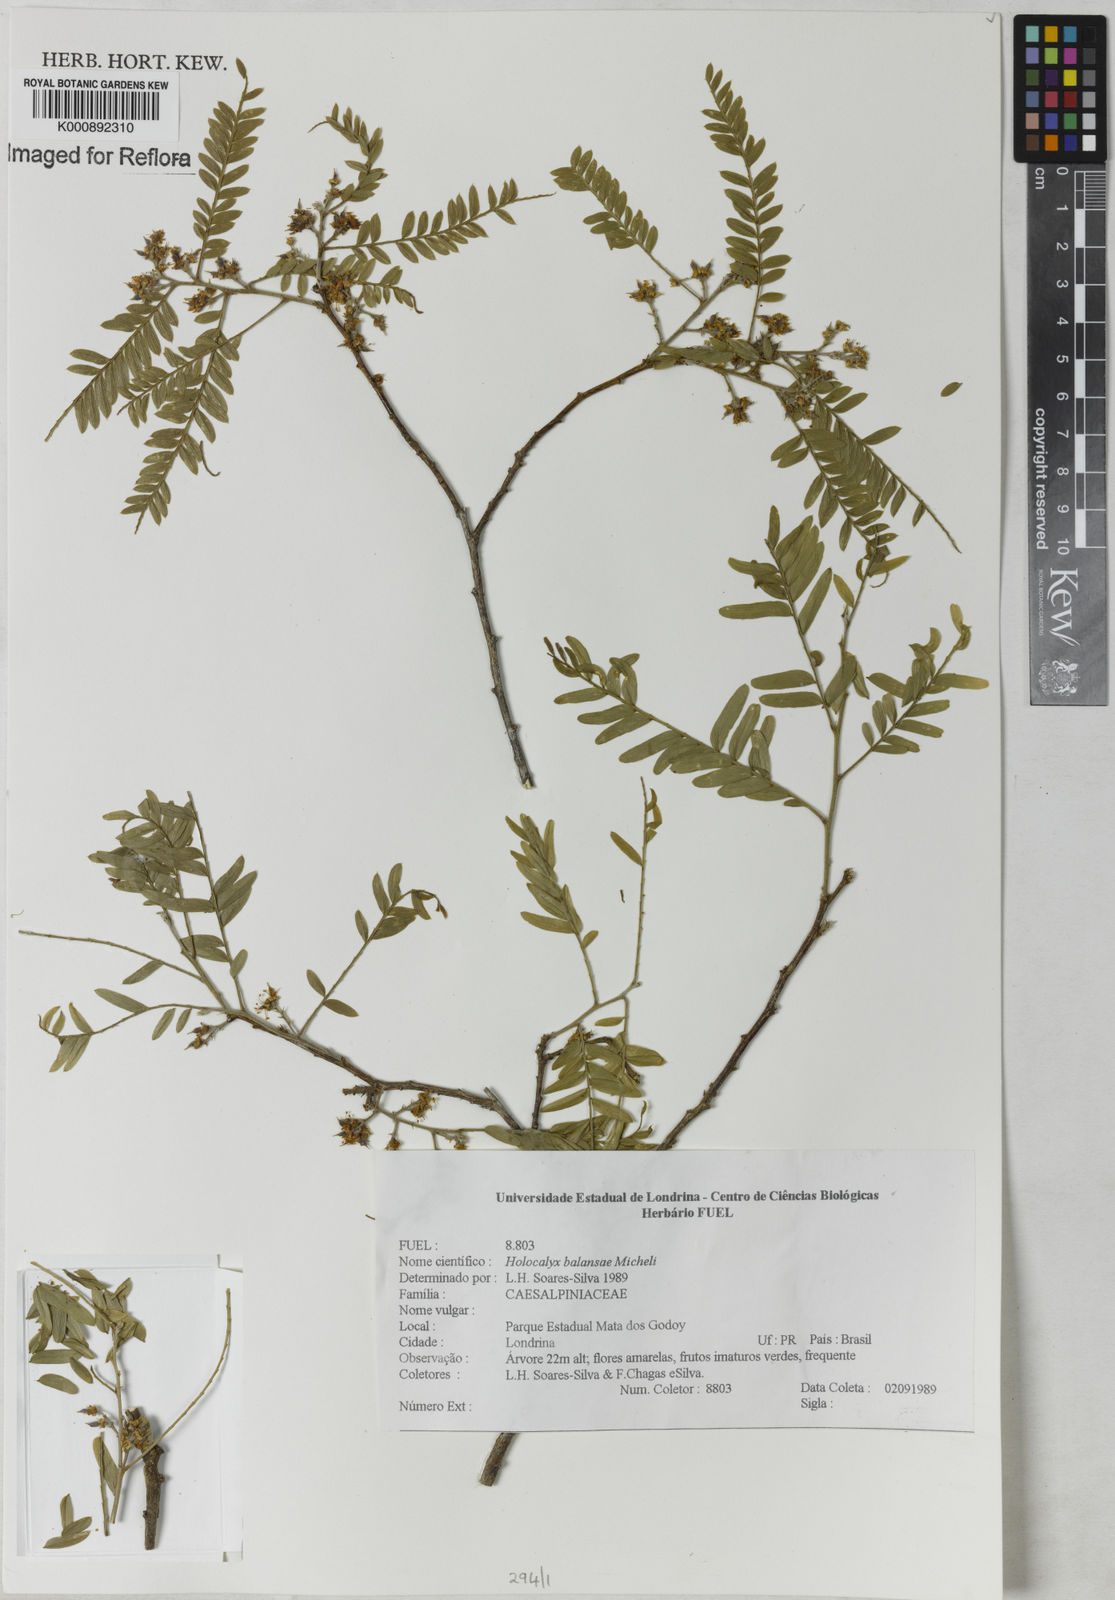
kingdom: Plantae
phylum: Tracheophyta
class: Magnoliopsida
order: Fabales
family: Fabaceae
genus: Holocalyx
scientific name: Holocalyx
